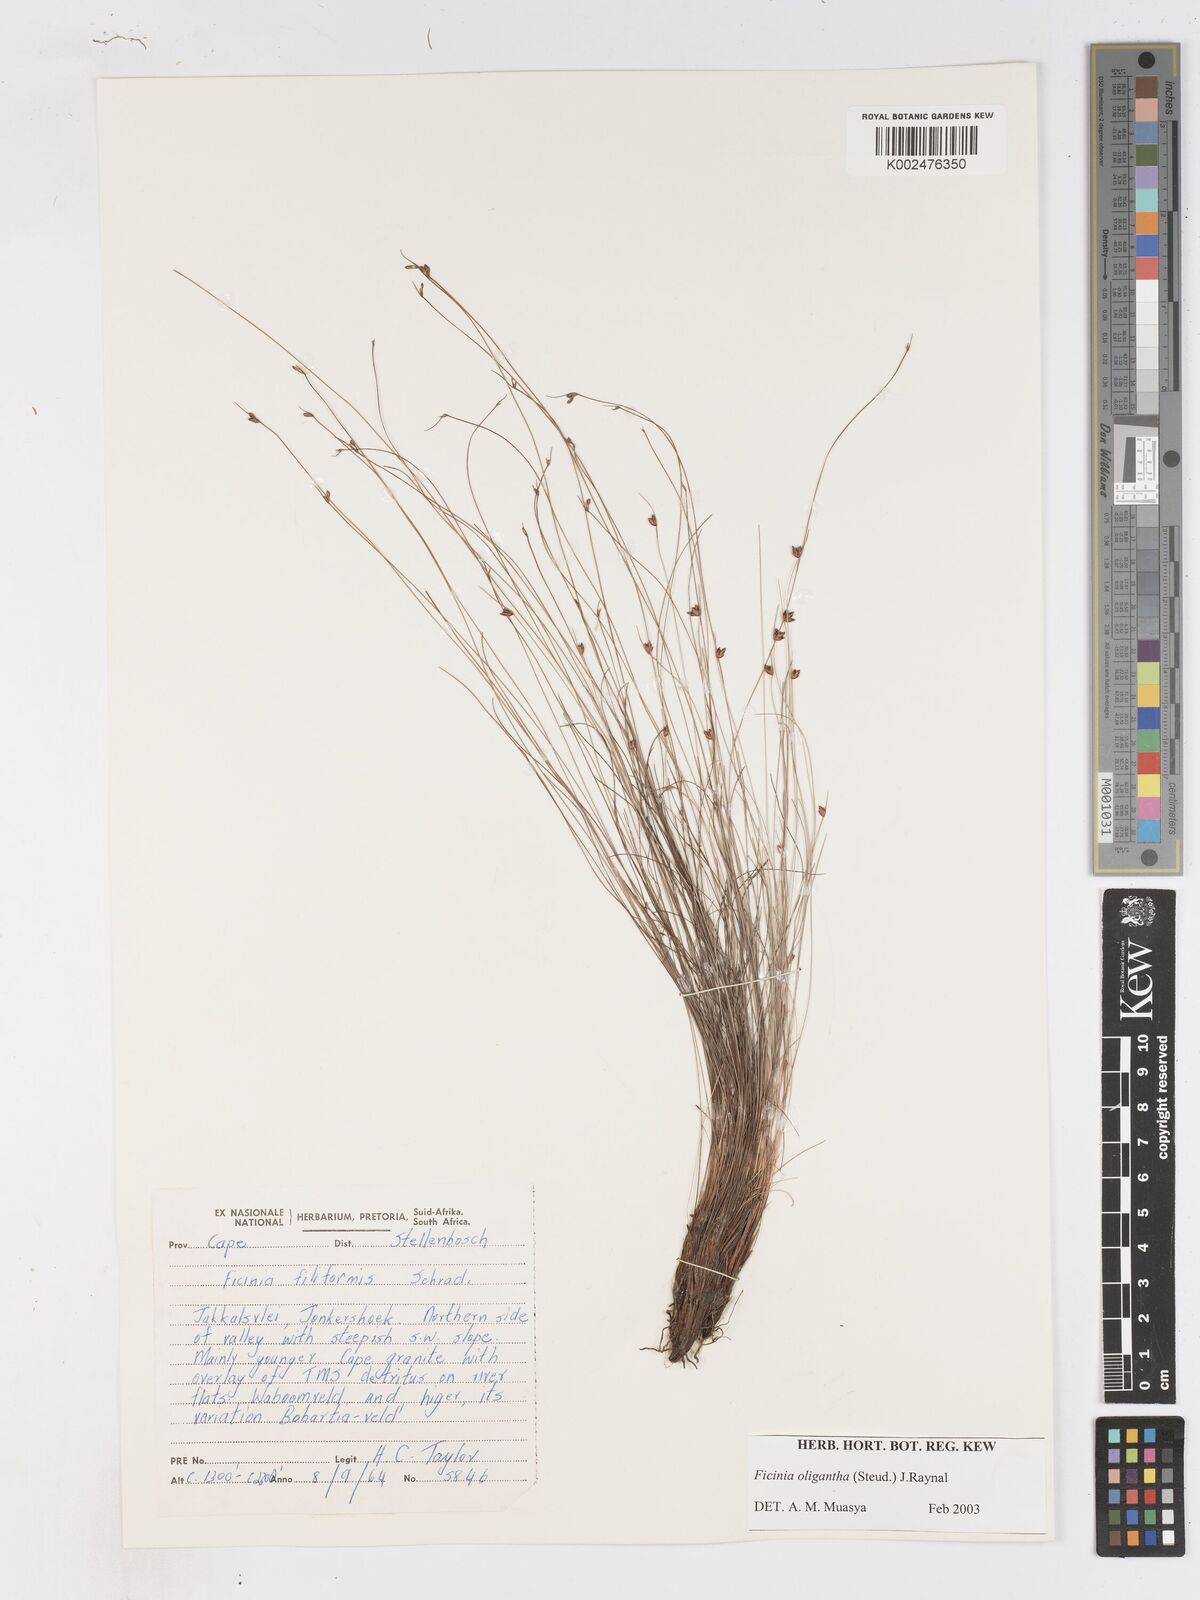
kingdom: Plantae
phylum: Tracheophyta
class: Liliopsida
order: Poales
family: Cyperaceae
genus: Ficinia
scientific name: Ficinia oligantha
